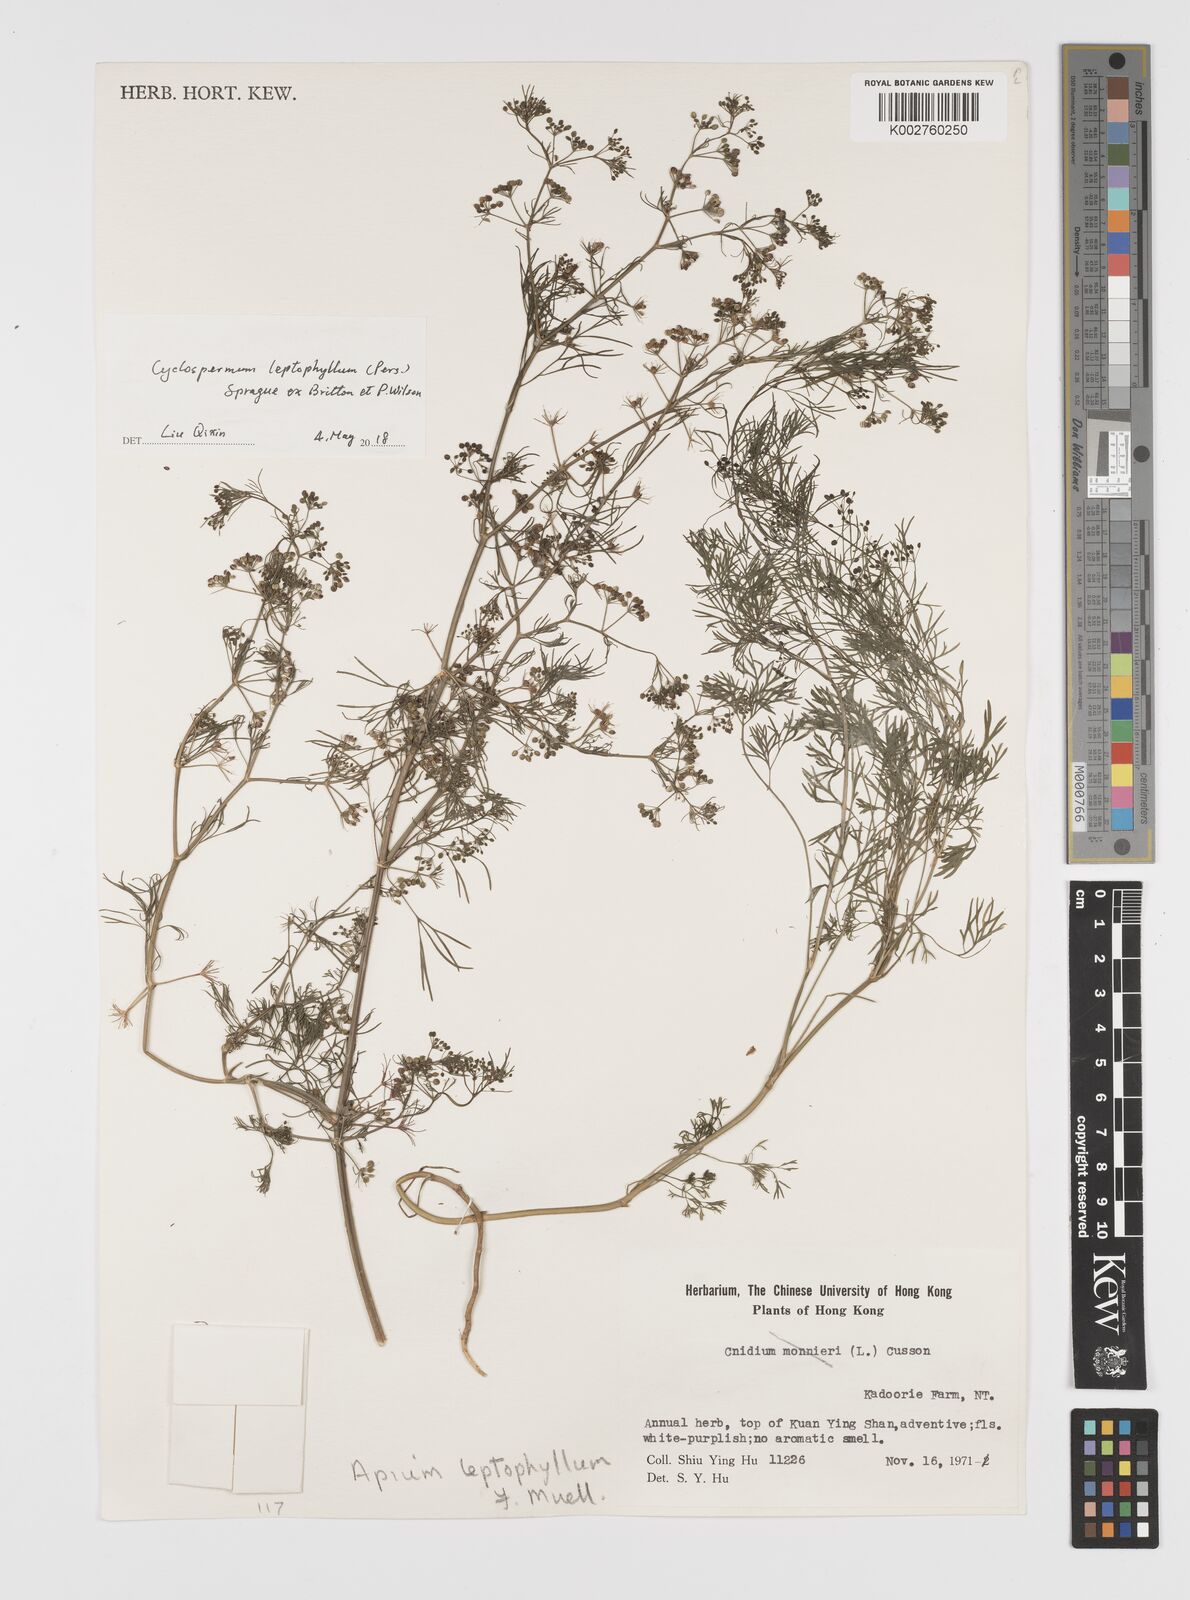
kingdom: Plantae
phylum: Tracheophyta
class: Magnoliopsida
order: Apiales
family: Apiaceae
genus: Cyclospermum
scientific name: Cyclospermum leptophyllum
